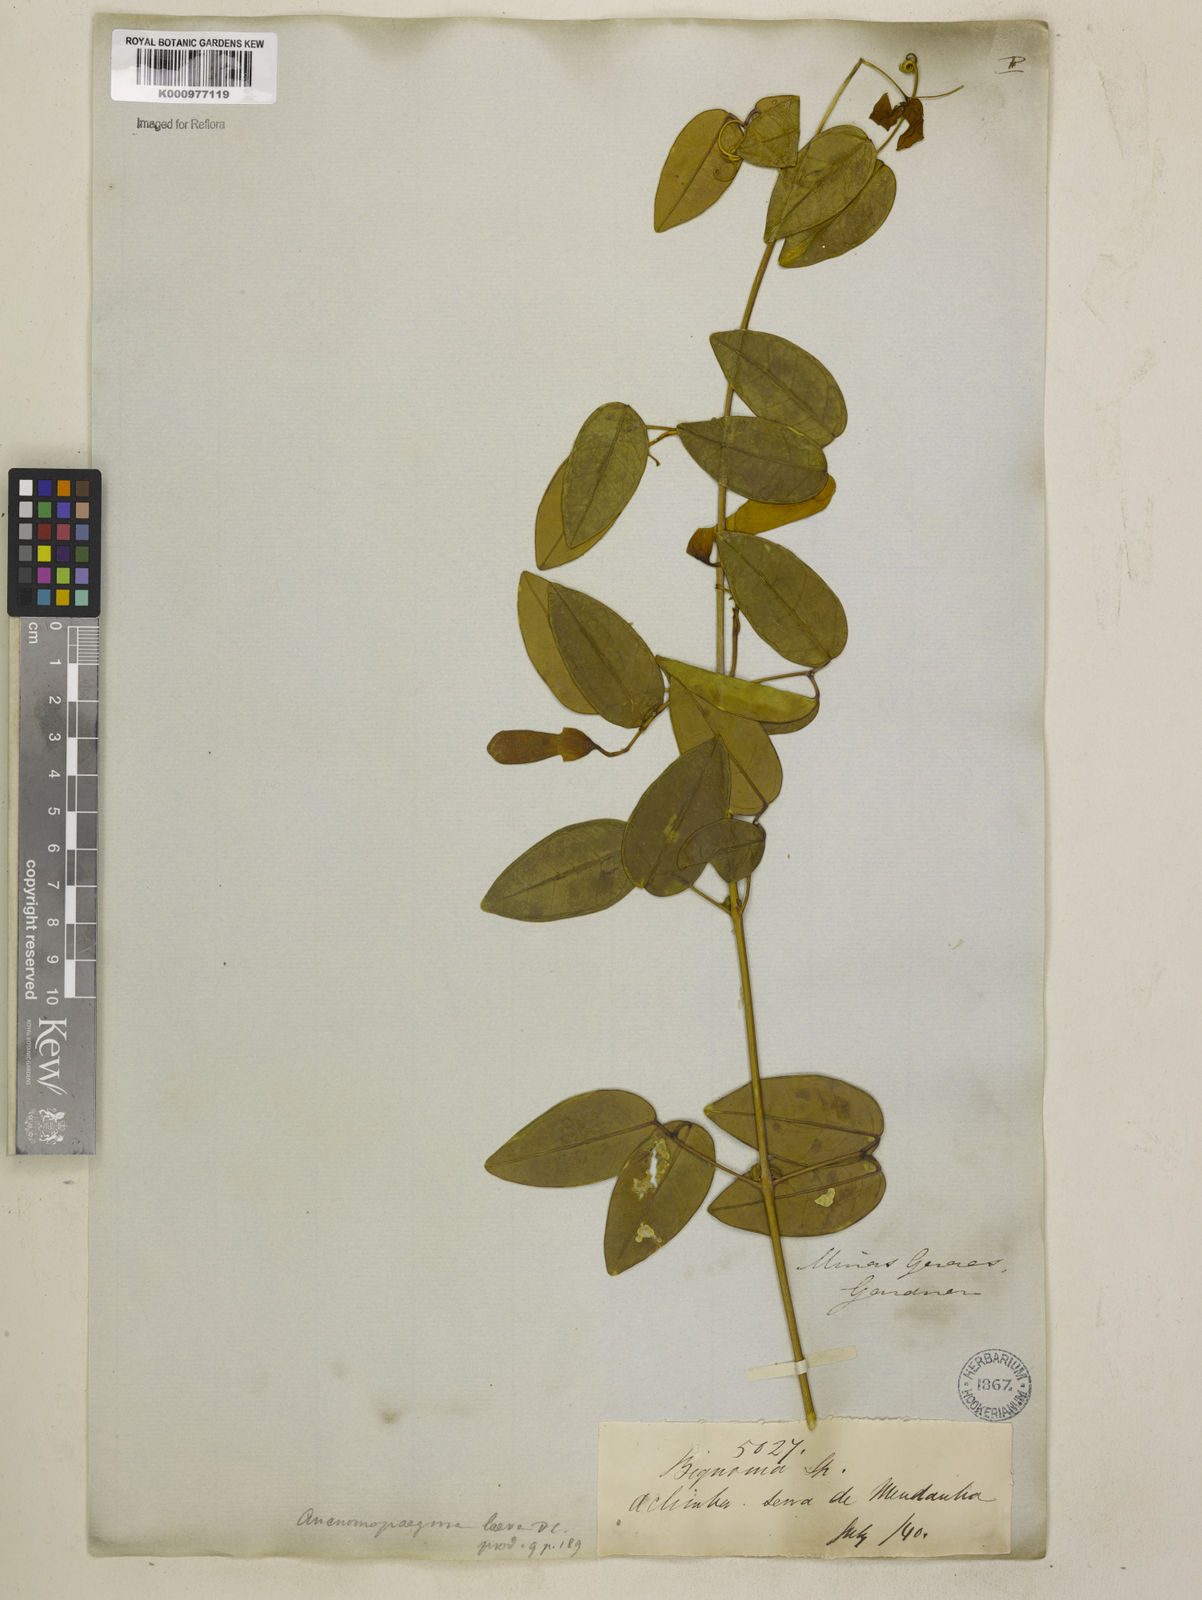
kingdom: Plantae
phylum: Tracheophyta
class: Magnoliopsida
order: Lamiales
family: Bignoniaceae
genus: Anemopaegma
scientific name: Anemopaegma laeve
